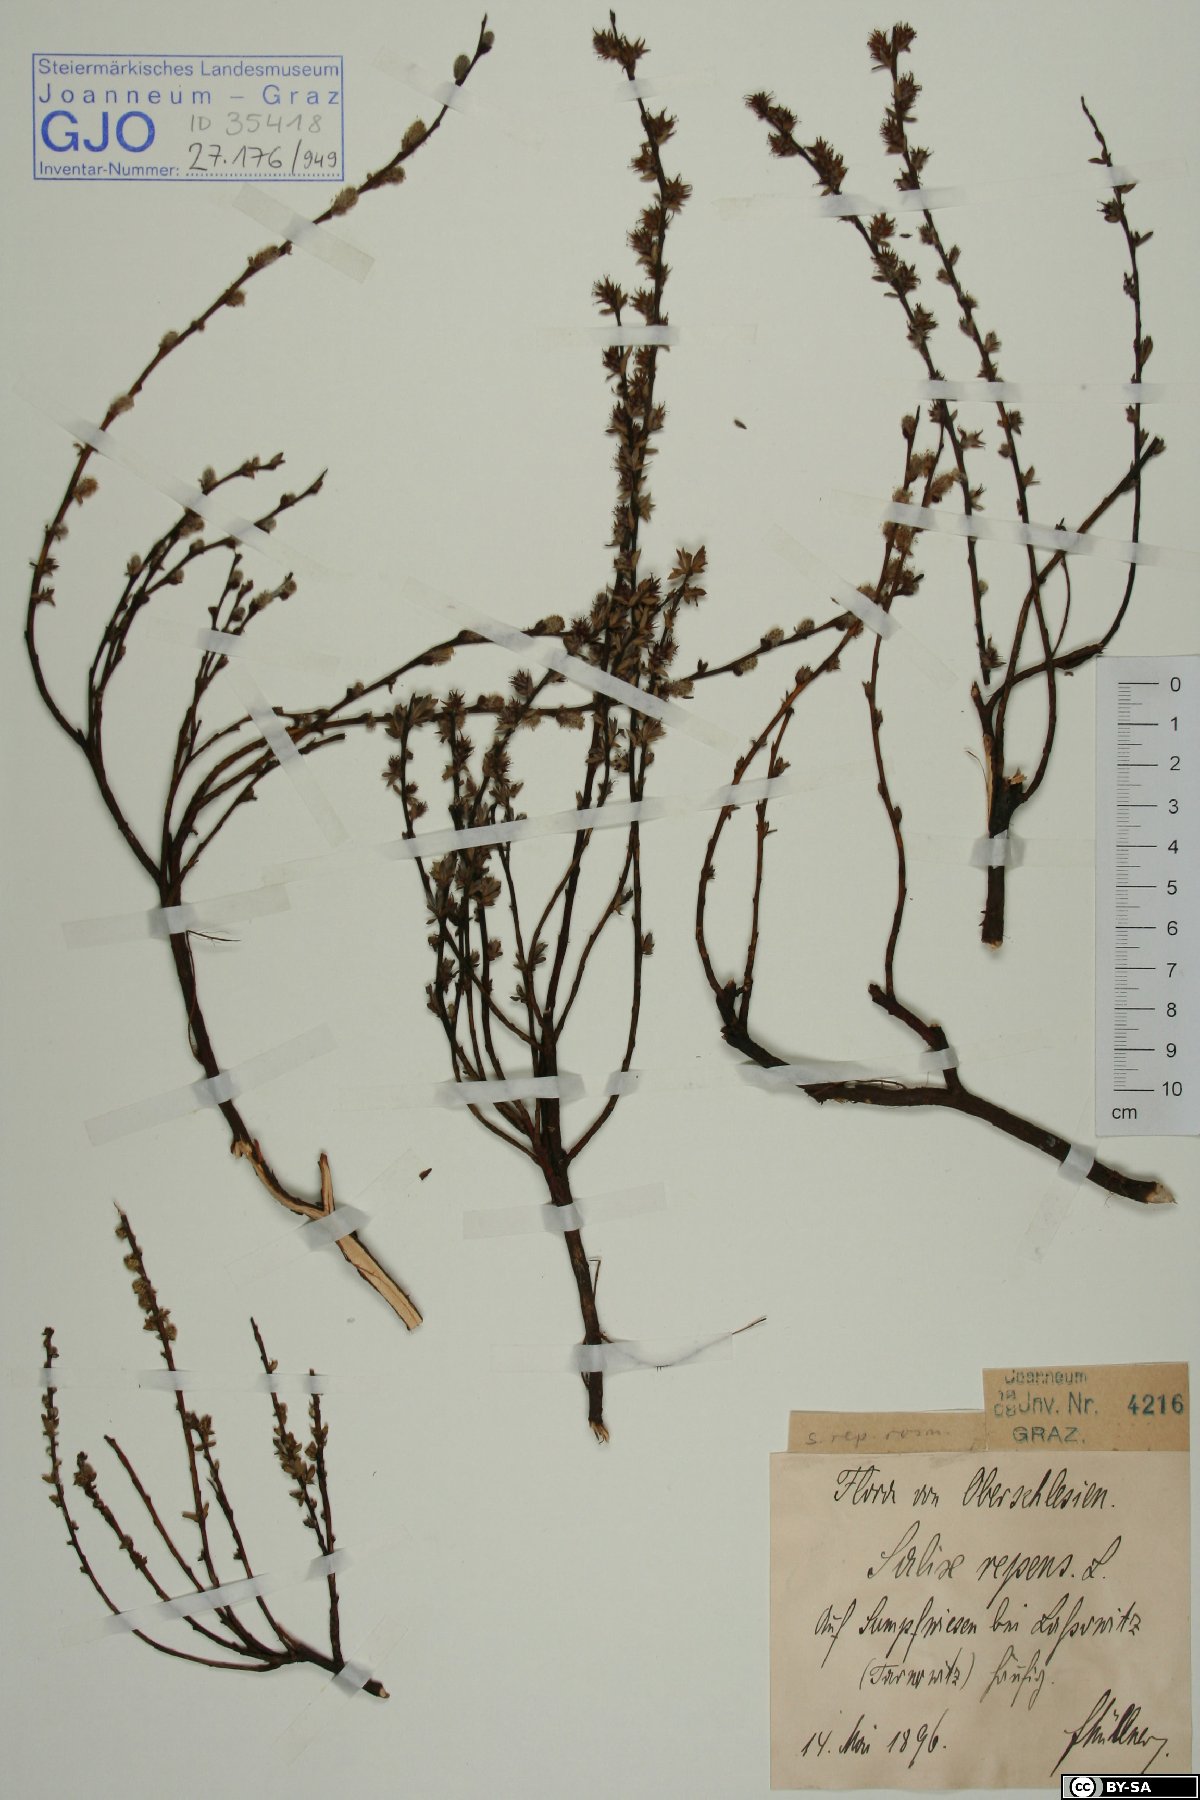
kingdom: Plantae
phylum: Tracheophyta
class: Magnoliopsida
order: Malpighiales
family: Salicaceae
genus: Salix
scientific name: Salix repens
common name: Creeping willow
